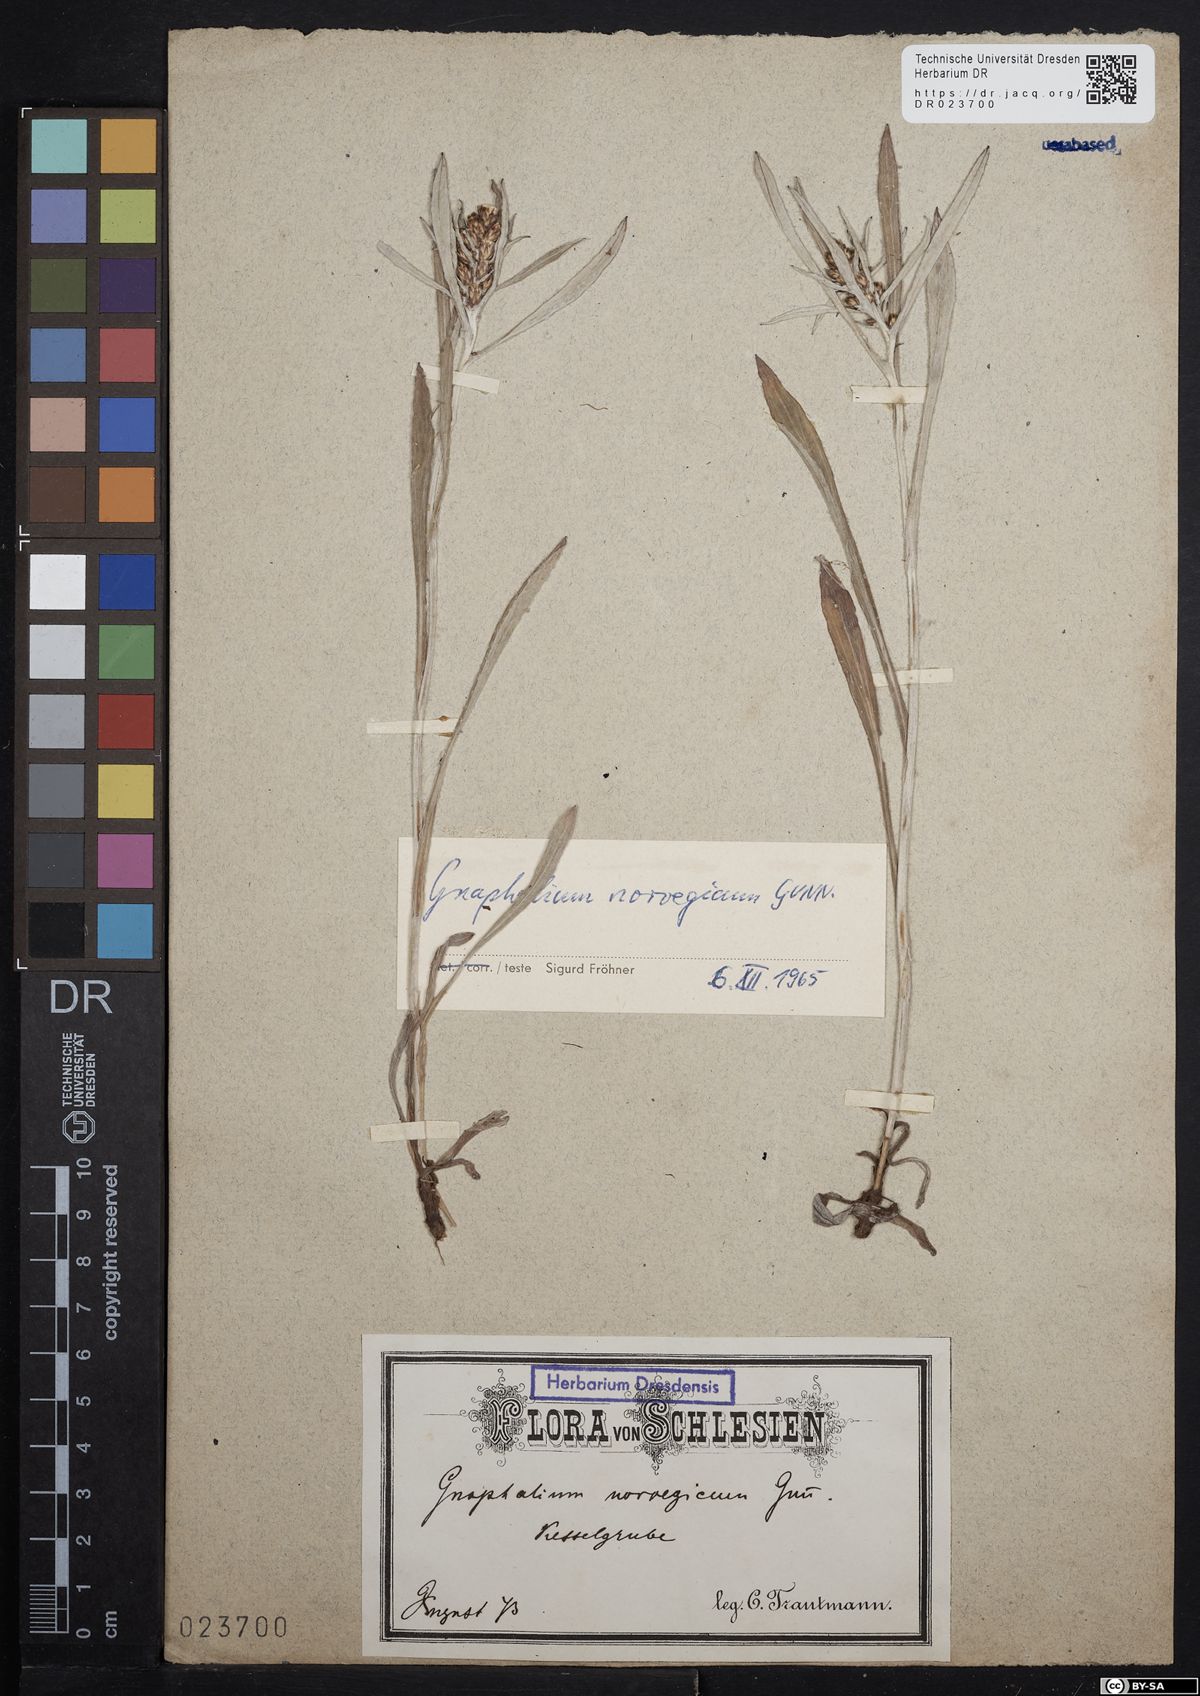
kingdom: Plantae
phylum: Tracheophyta
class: Magnoliopsida
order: Asterales
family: Asteraceae
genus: Omalotheca
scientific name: Omalotheca norvegica
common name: Norwegian arctic-cudweed
